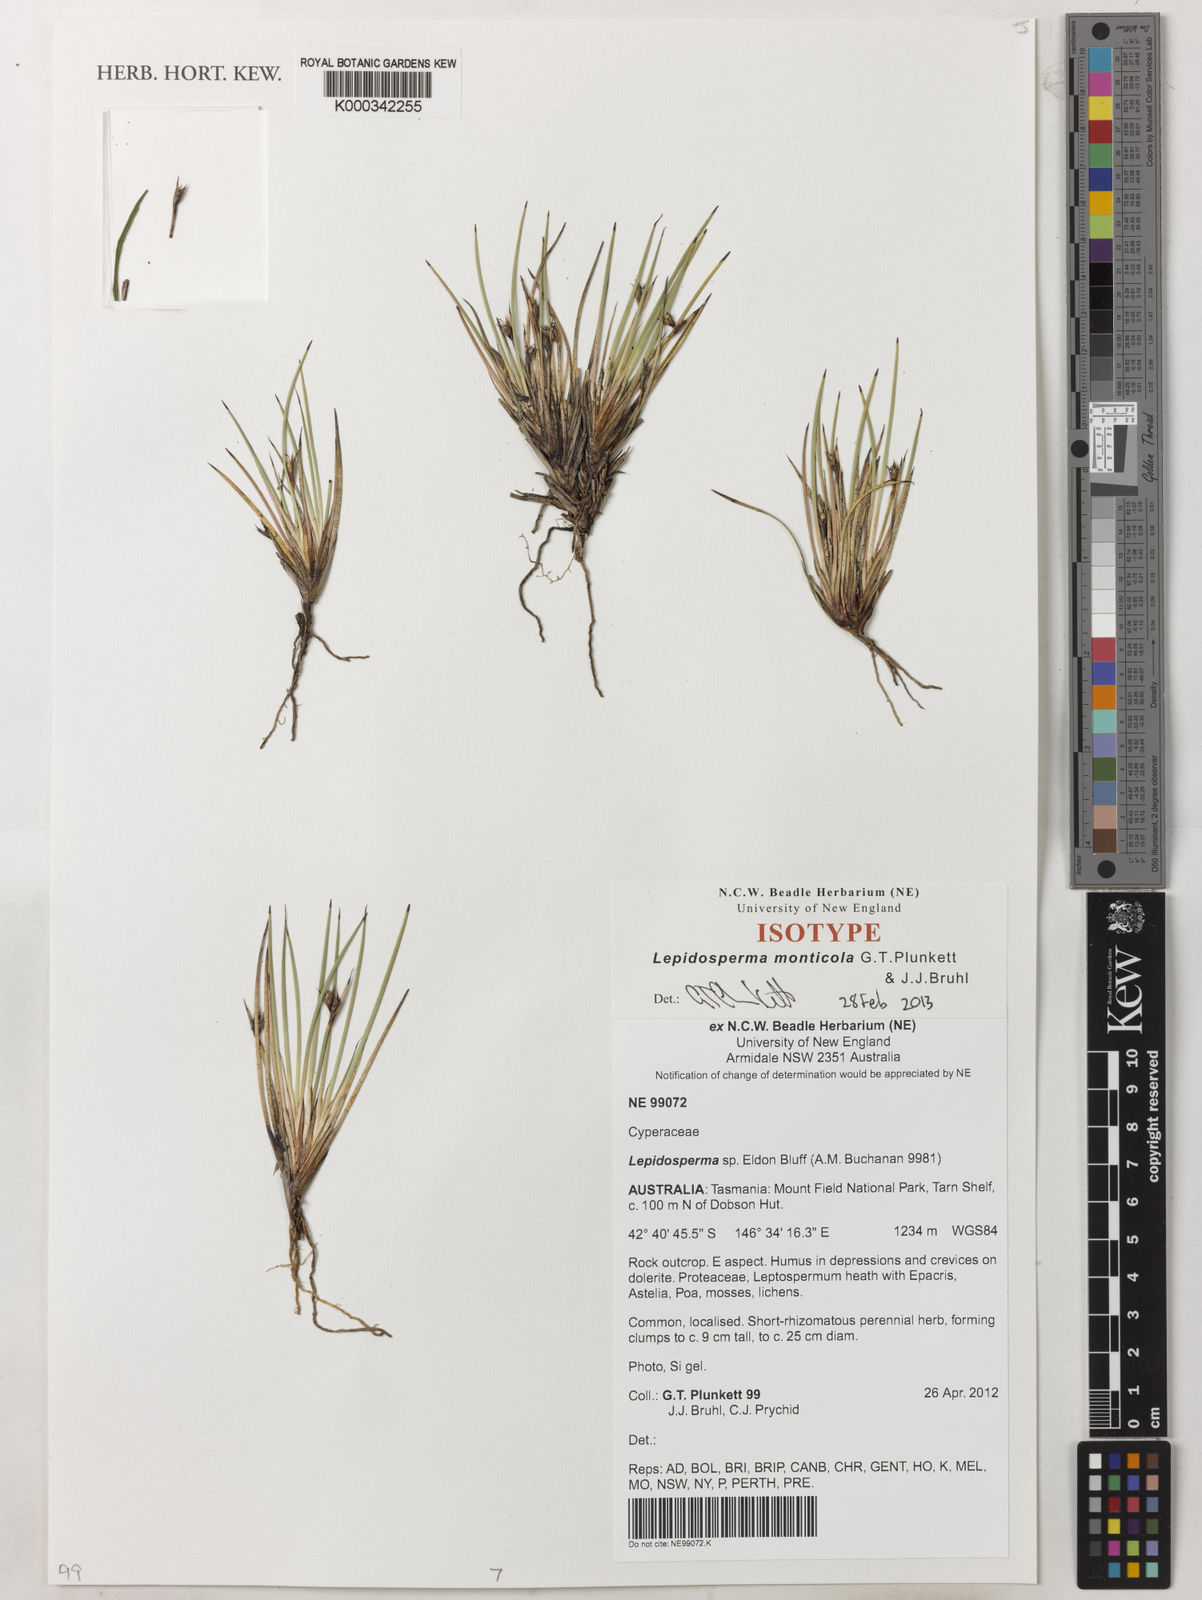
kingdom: Plantae
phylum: Tracheophyta
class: Liliopsida
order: Poales
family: Cyperaceae
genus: Lepidosperma
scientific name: Lepidosperma monticola
